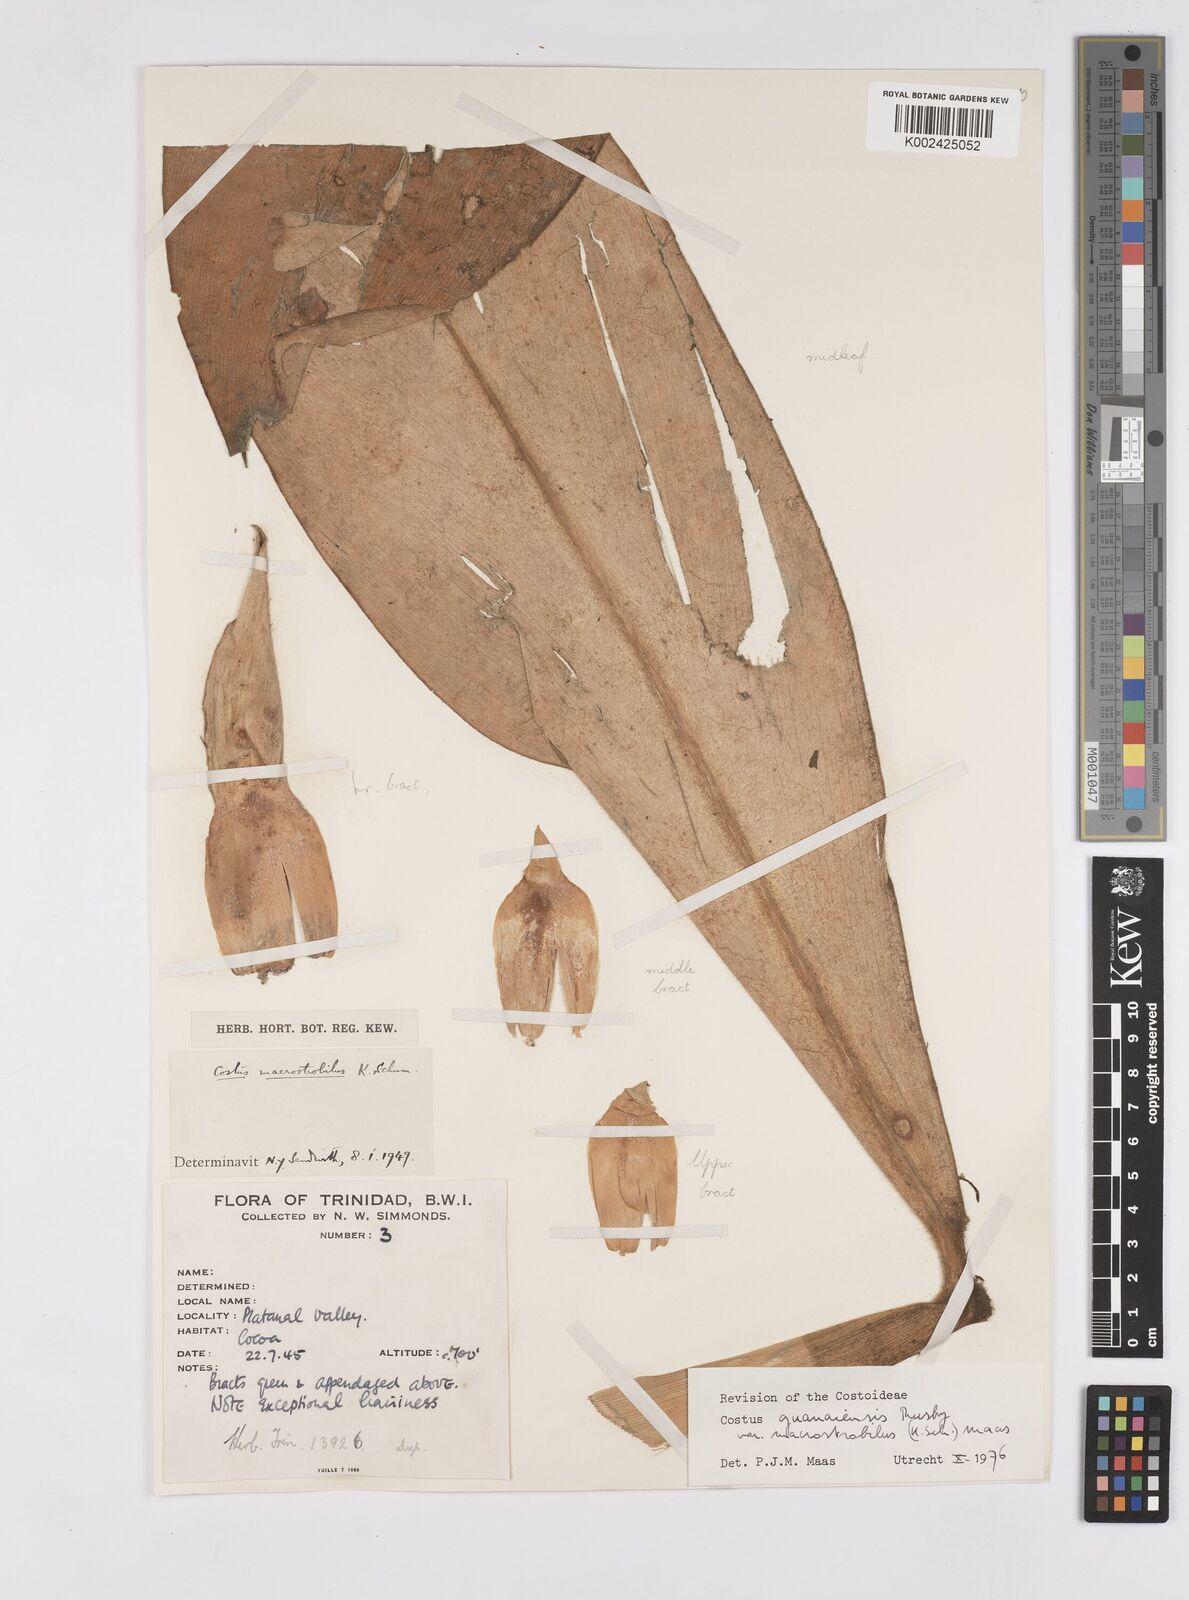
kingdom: Plantae
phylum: Tracheophyta
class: Liliopsida
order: Zingiberales
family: Costaceae
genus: Costus
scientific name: Costus guanaiensis
